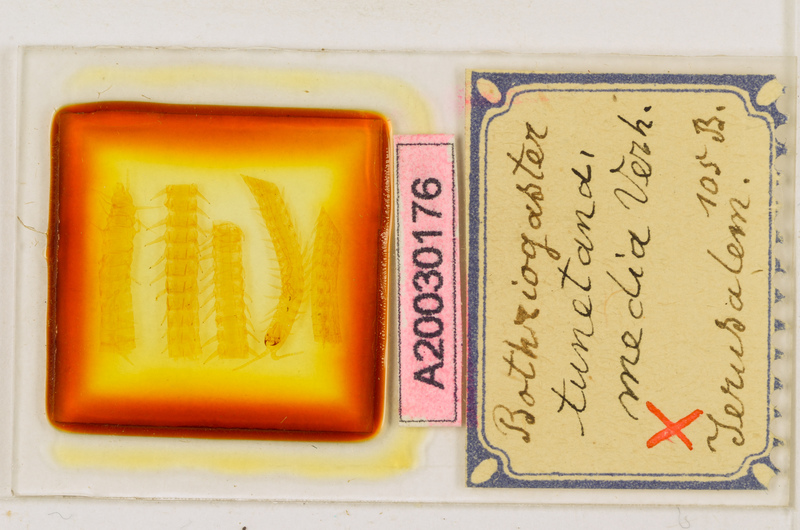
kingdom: Animalia
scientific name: Animalia
